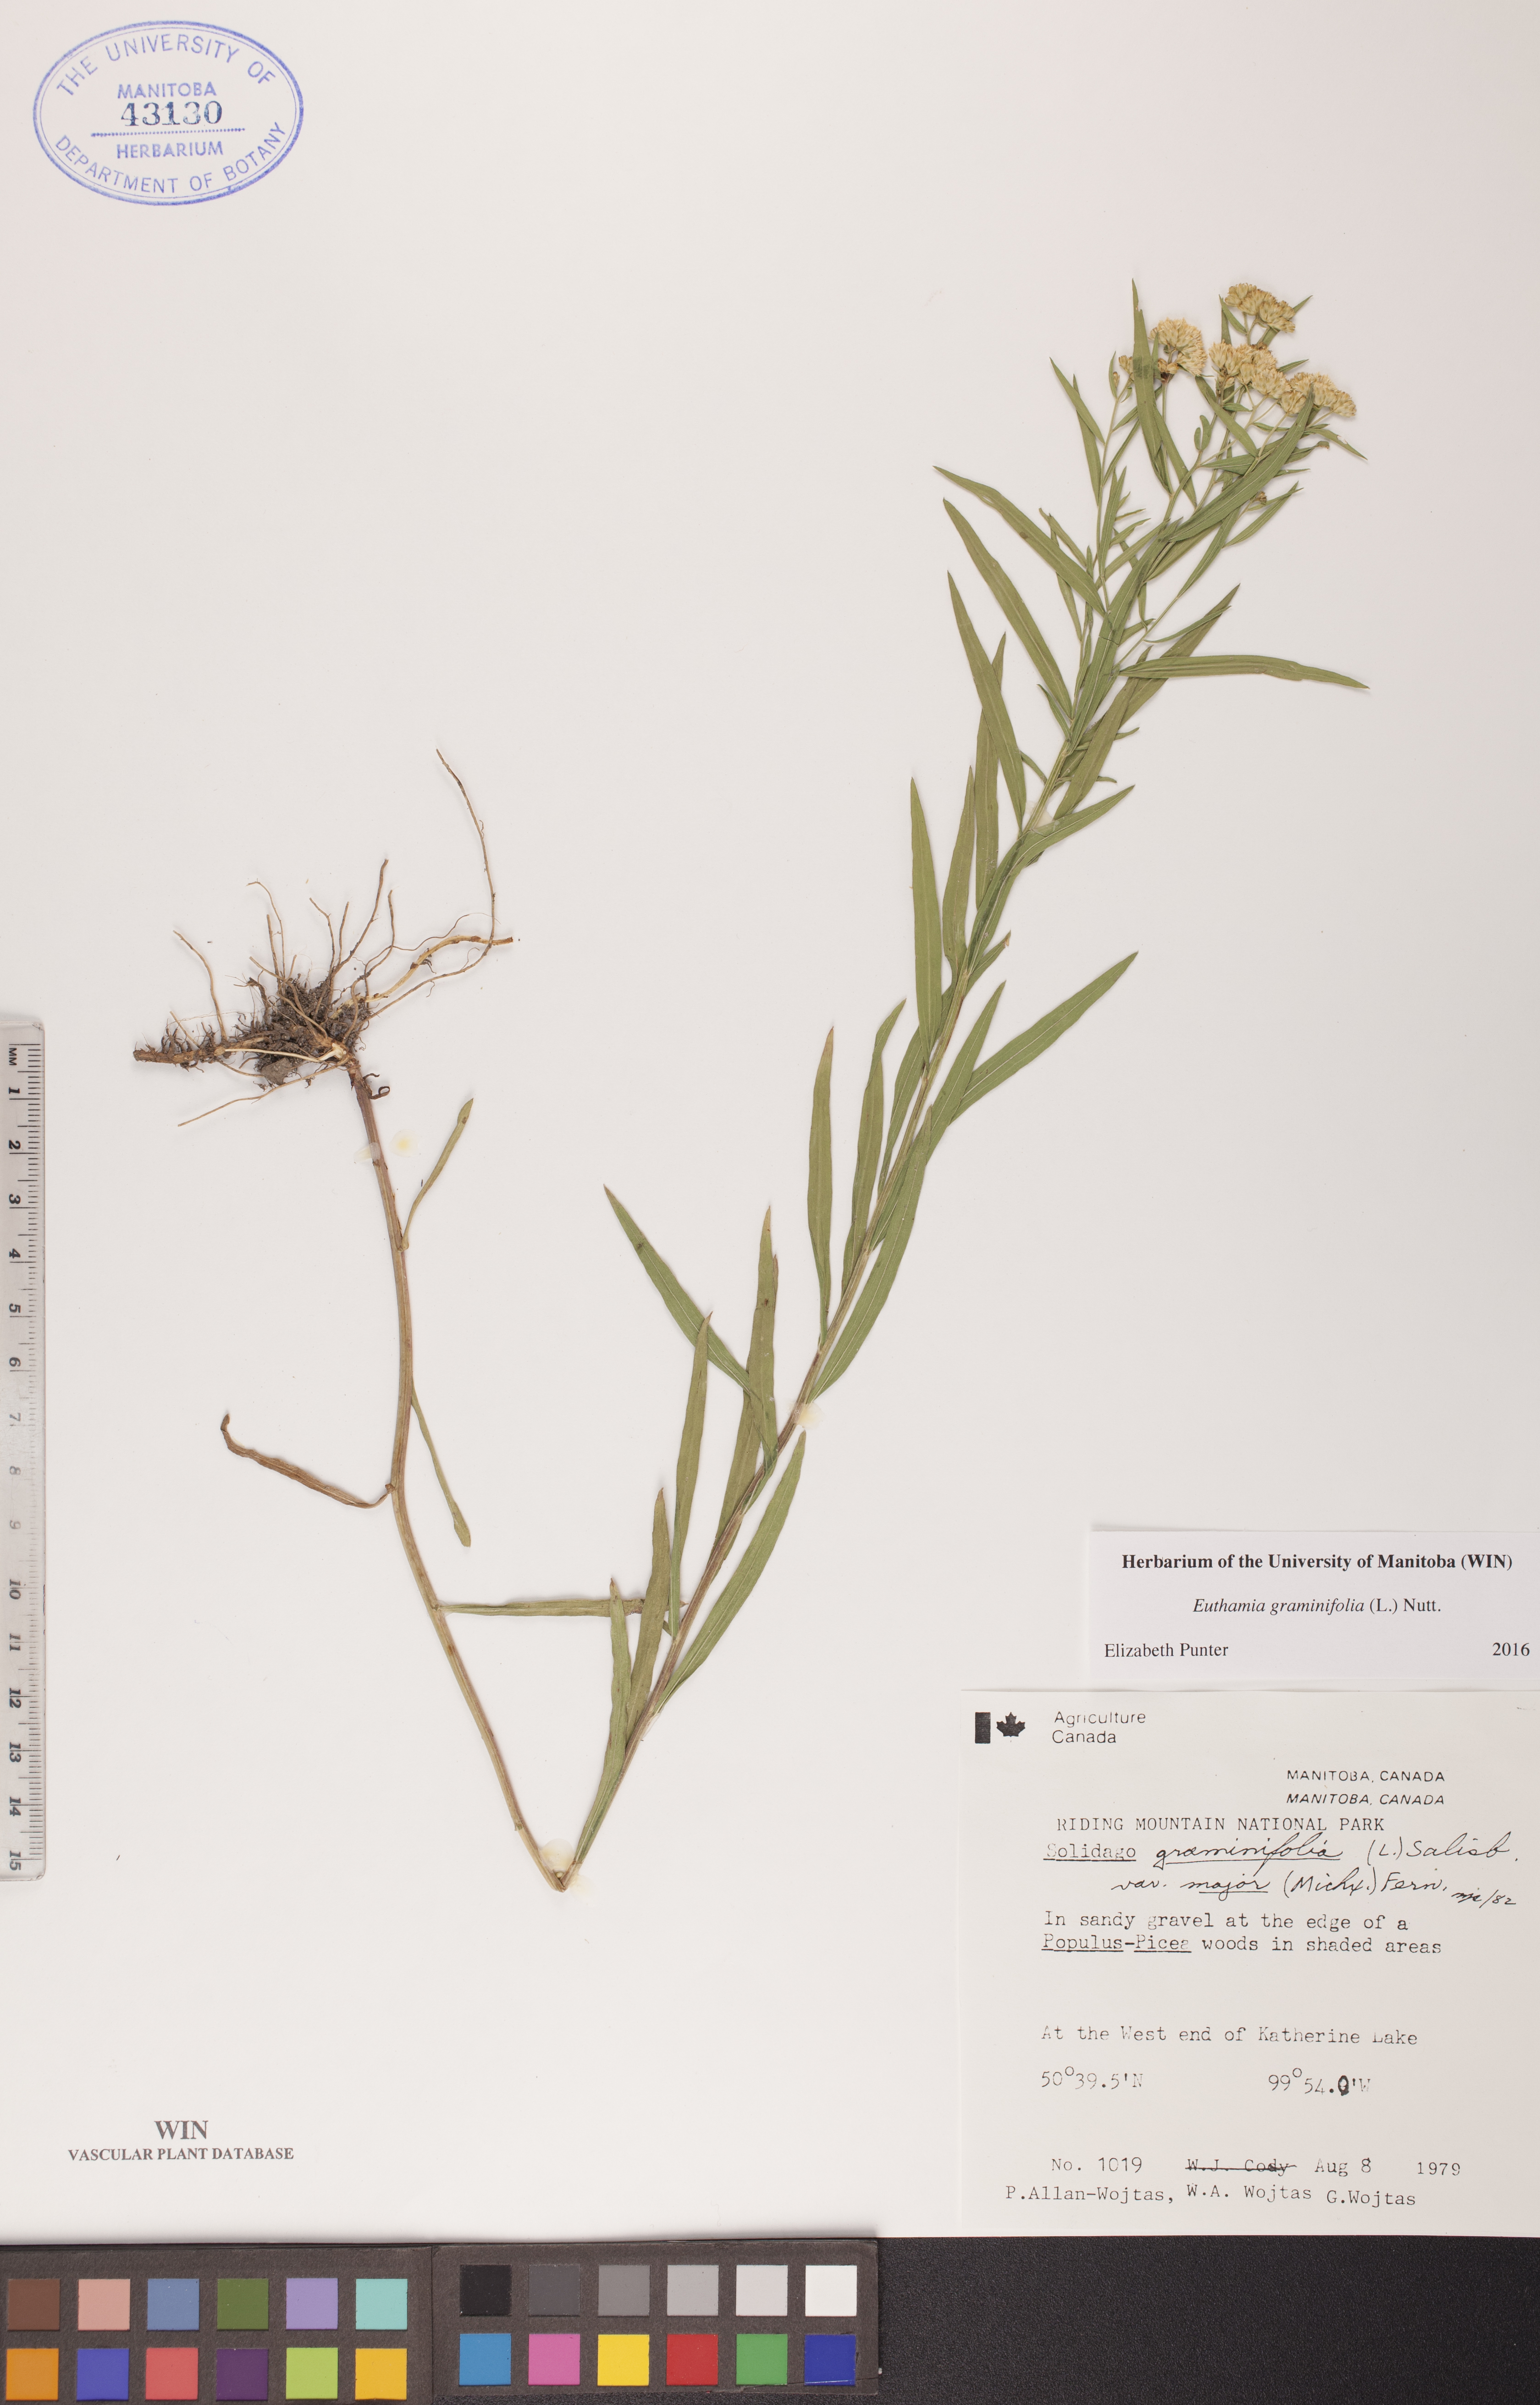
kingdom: Plantae
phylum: Tracheophyta
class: Magnoliopsida
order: Asterales
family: Asteraceae
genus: Euthamia
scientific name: Euthamia graminifolia
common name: Common goldentop
